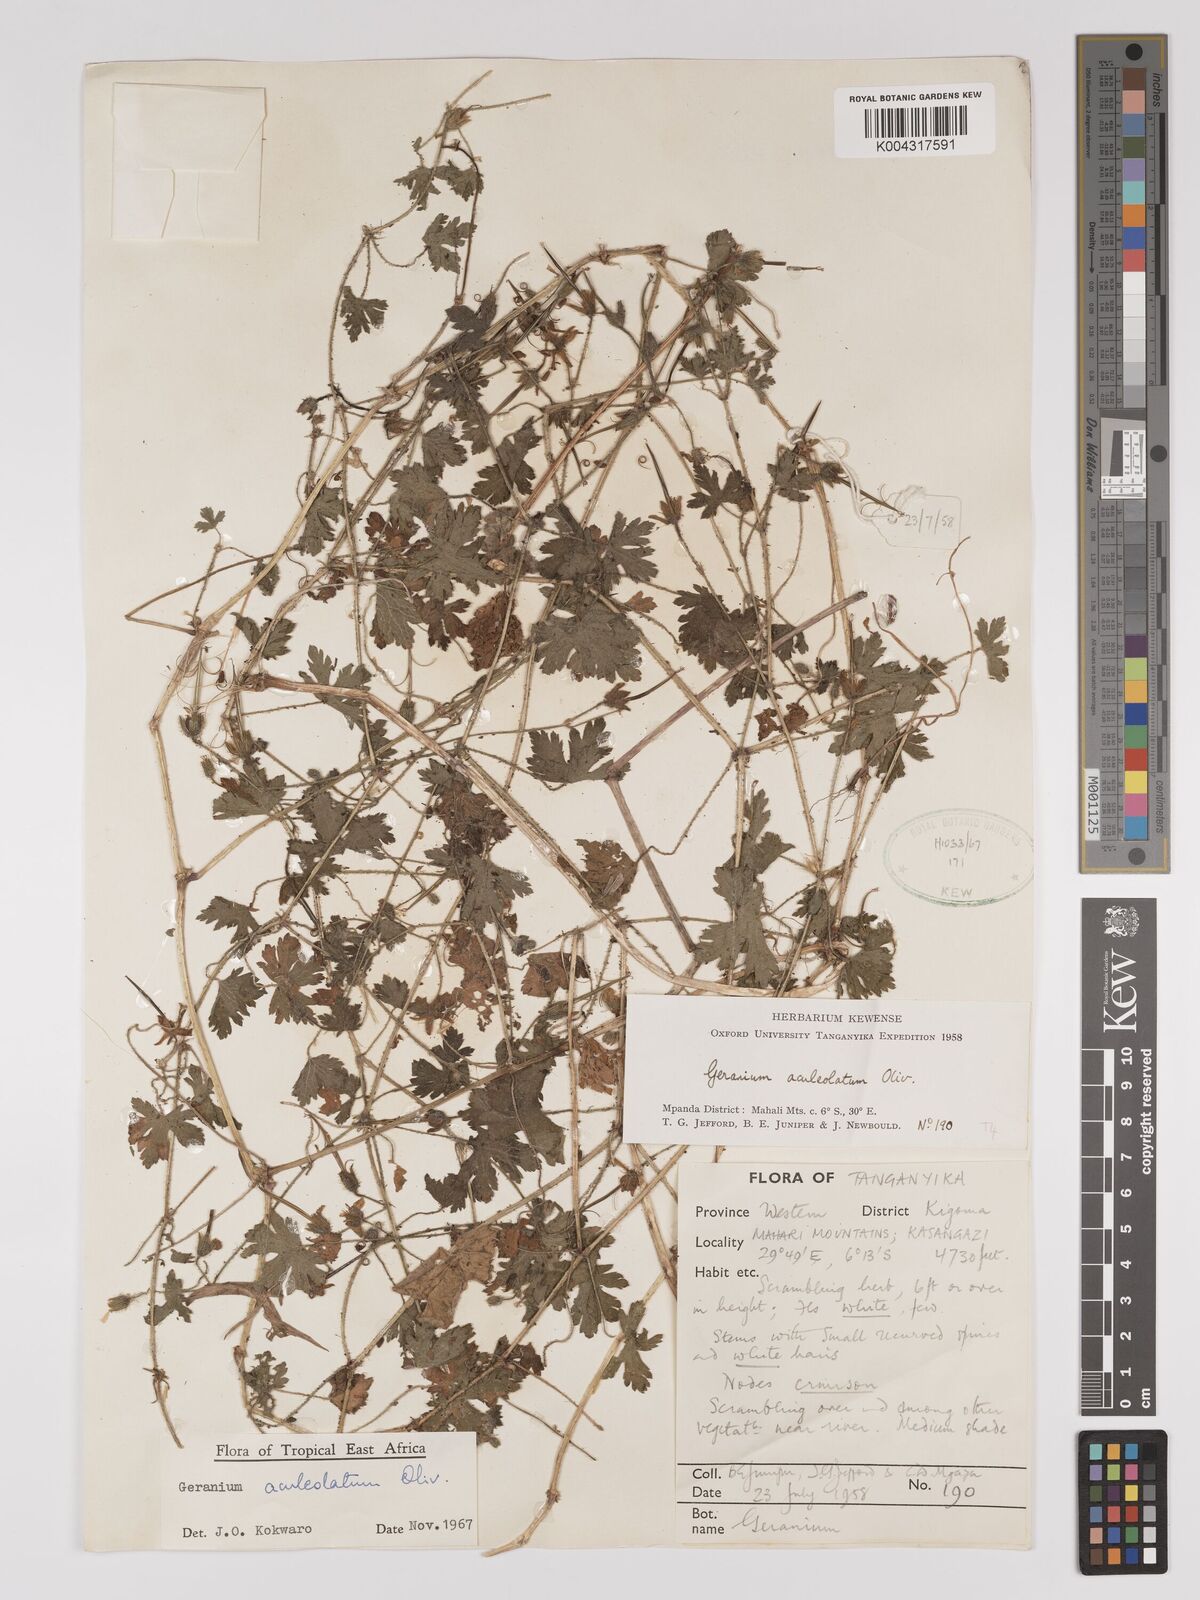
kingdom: Plantae
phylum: Tracheophyta
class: Magnoliopsida
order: Geraniales
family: Geraniaceae
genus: Geranium
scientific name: Geranium aculeolatum
